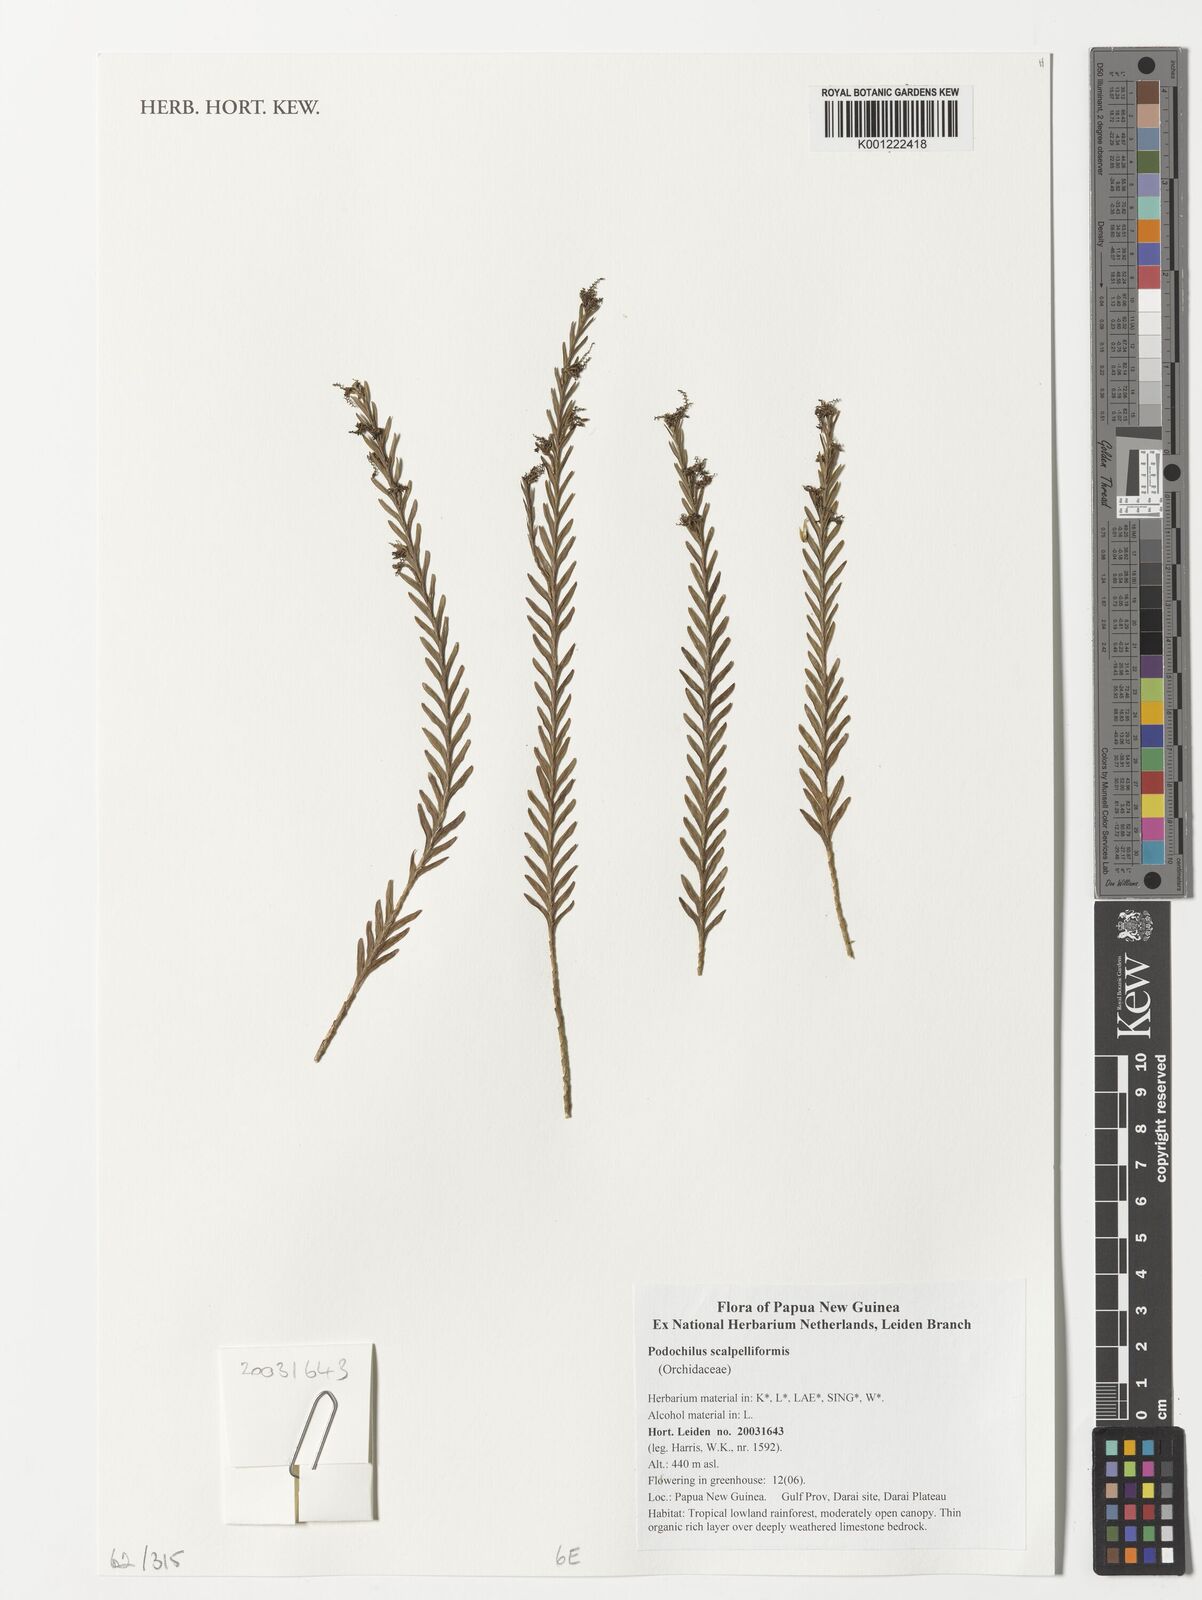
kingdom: Plantae
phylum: Tracheophyta
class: Liliopsida
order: Asparagales
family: Orchidaceae
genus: Podochilus
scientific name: Podochilus scalpelliformis
